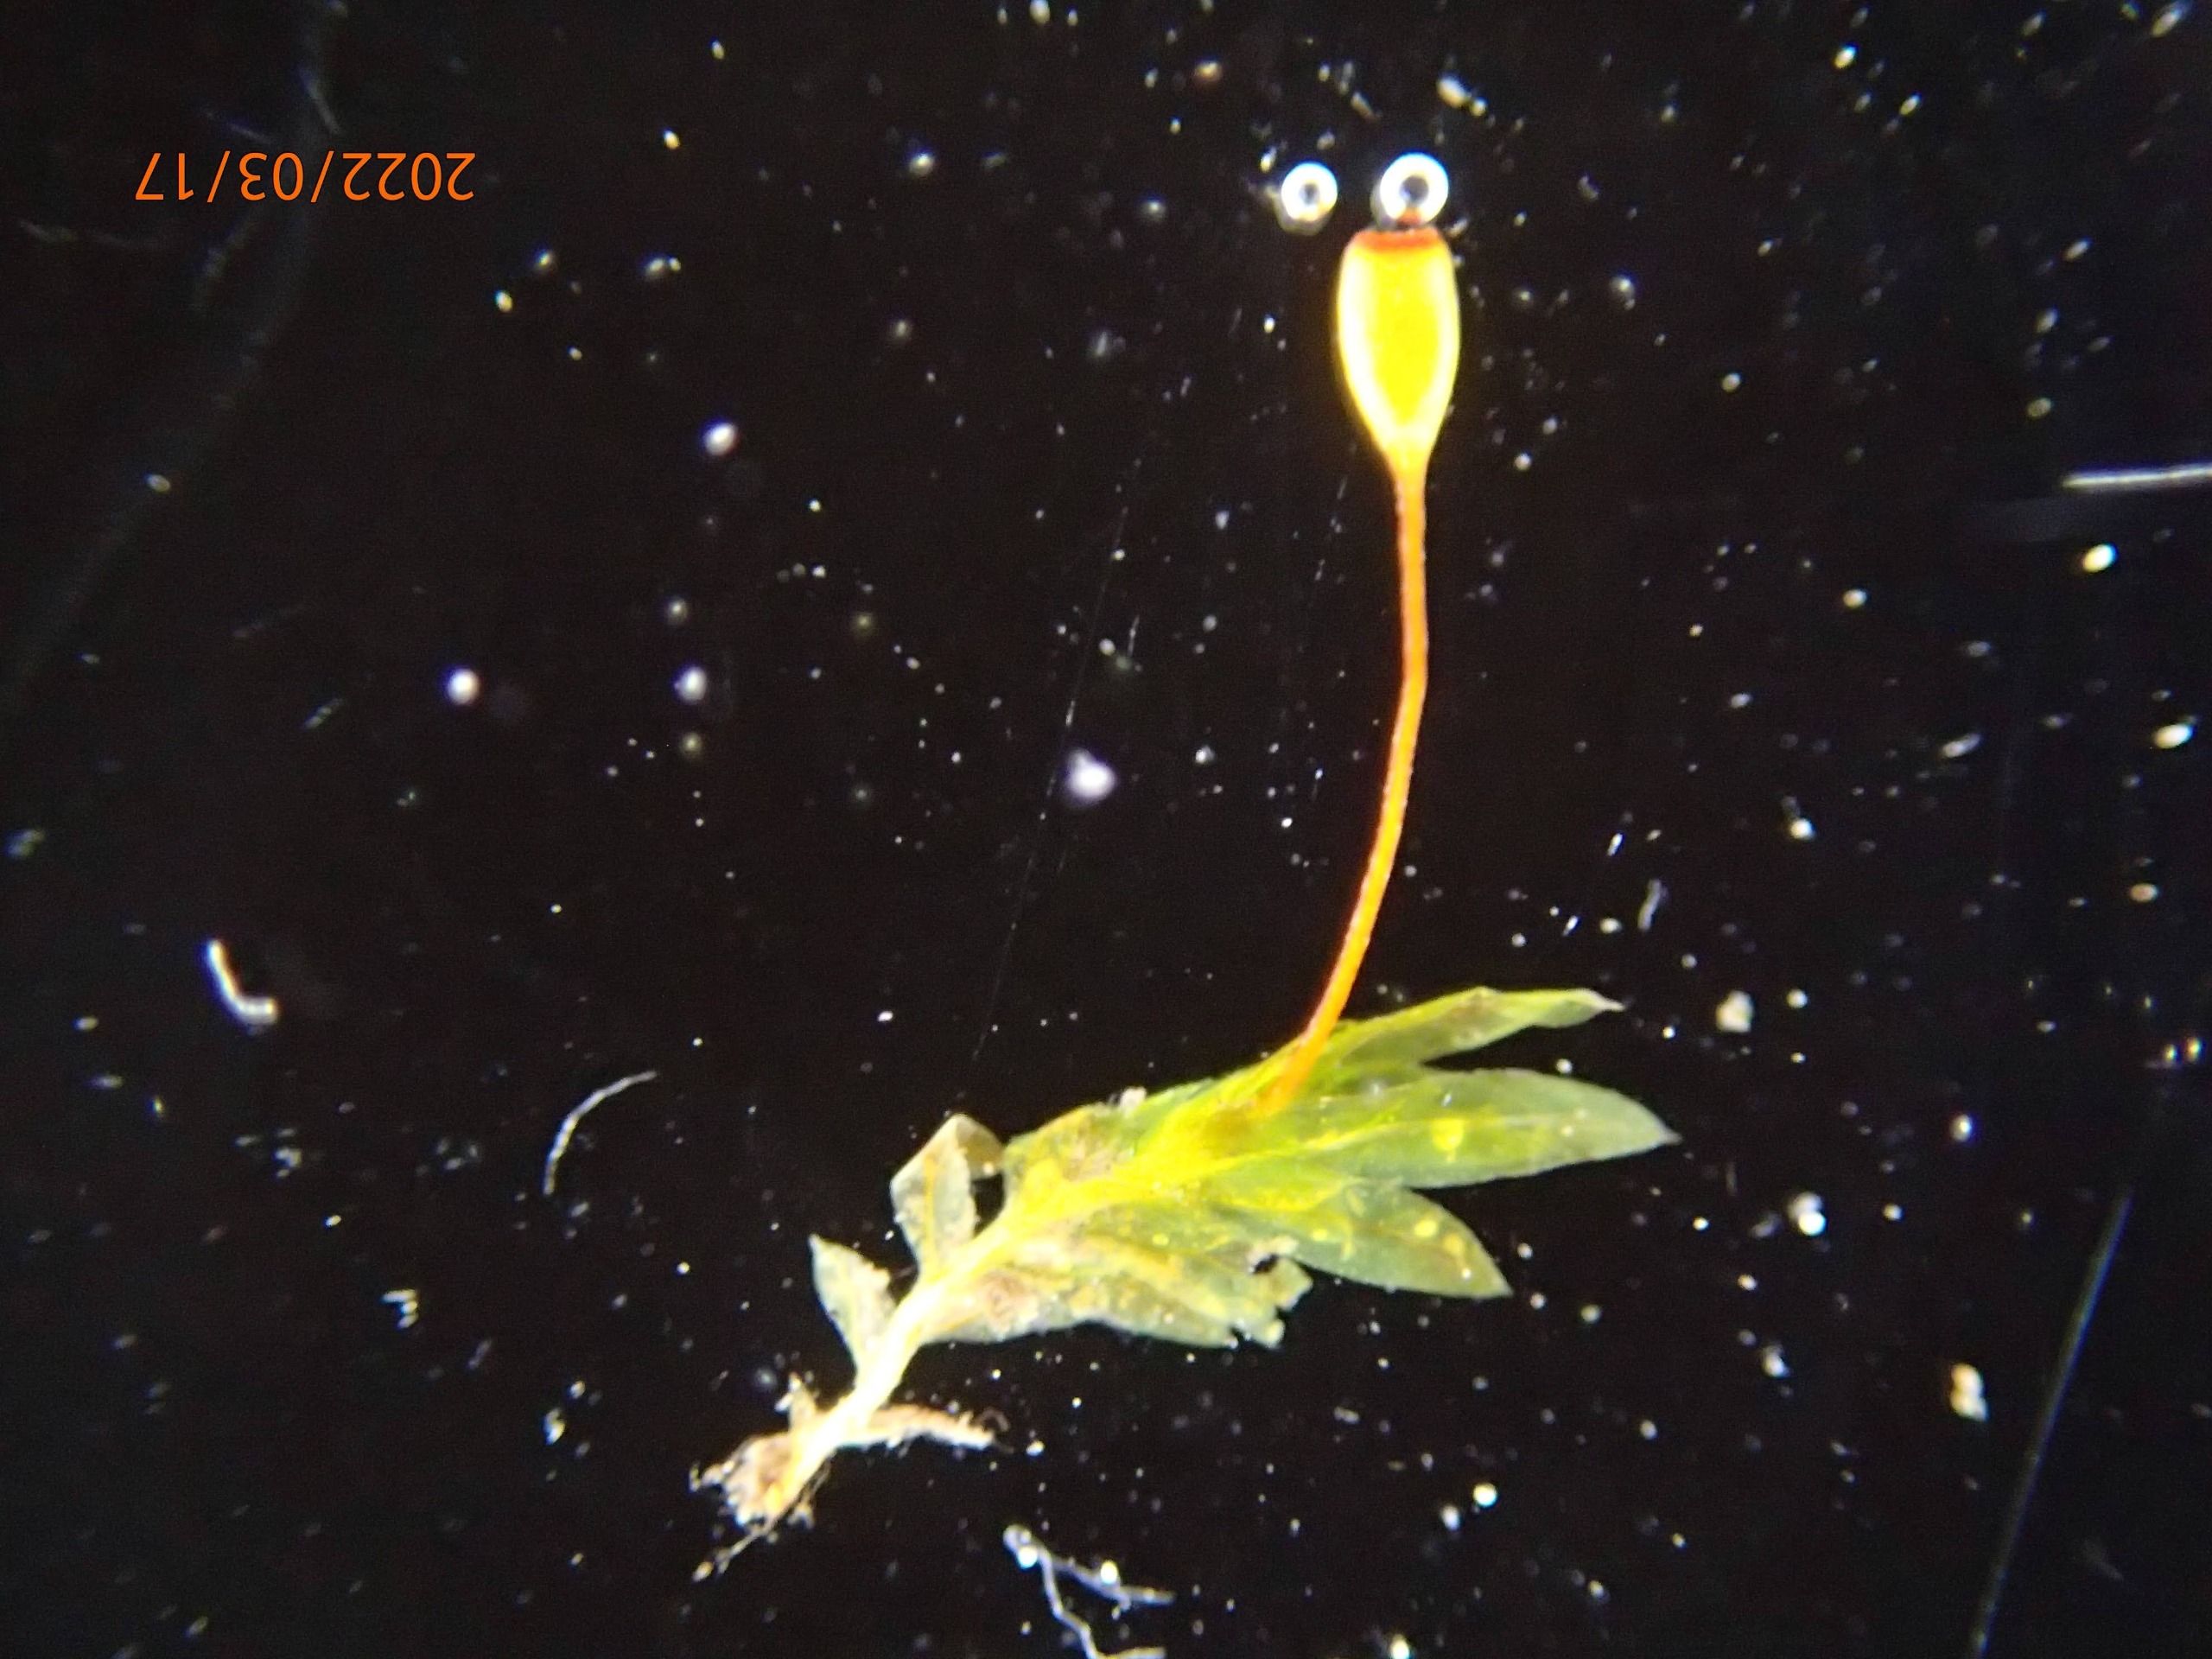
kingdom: Plantae
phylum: Bryophyta
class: Bryopsida
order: Dicranales
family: Fissidentaceae
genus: Fissidens
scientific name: Fissidens bryoides
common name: Top-rademos
